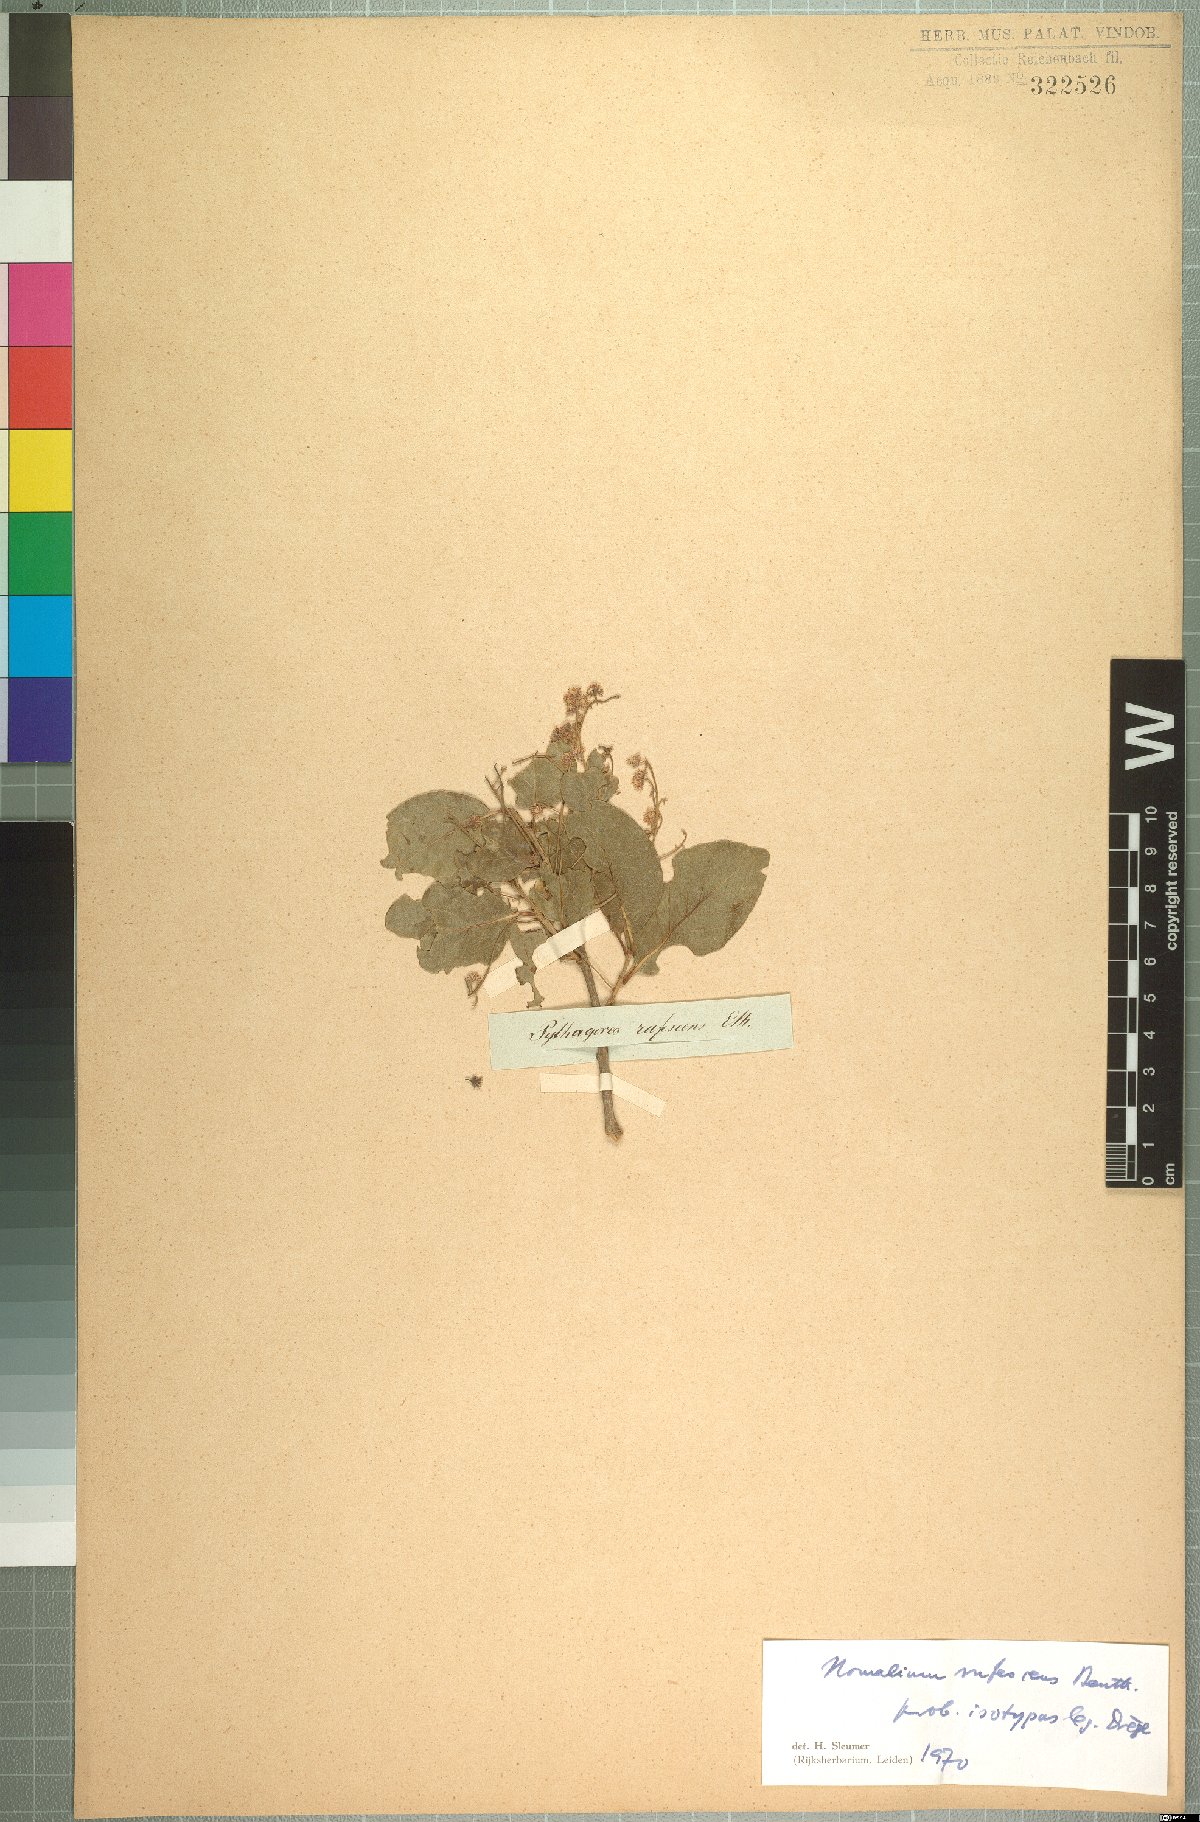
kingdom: Plantae
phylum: Tracheophyta
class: Magnoliopsida
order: Malpighiales
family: Salicaceae
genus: Homalium
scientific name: Homalium rufescens
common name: Small-leaved brown-ironwood
